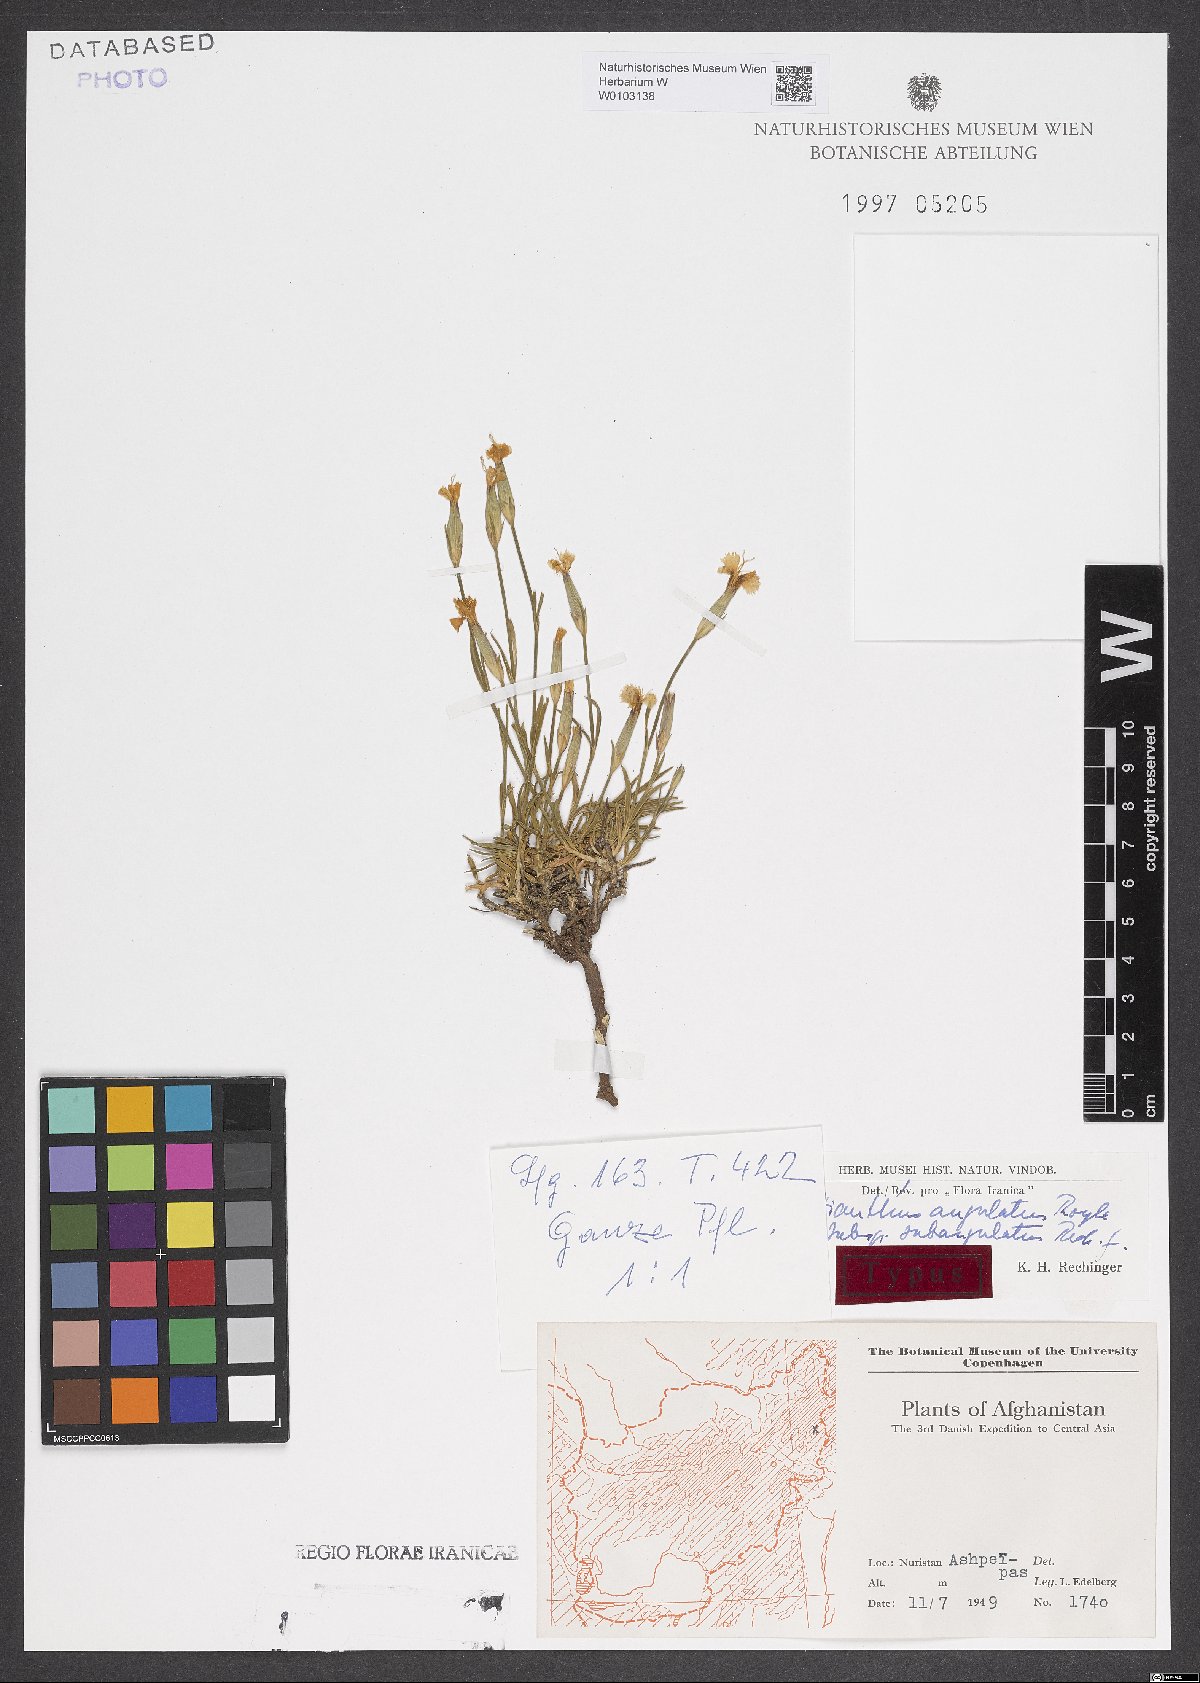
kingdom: Plantae
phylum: Tracheophyta
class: Magnoliopsida
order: Caryophyllales
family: Caryophyllaceae
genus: Dianthus
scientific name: Dianthus angulatus
